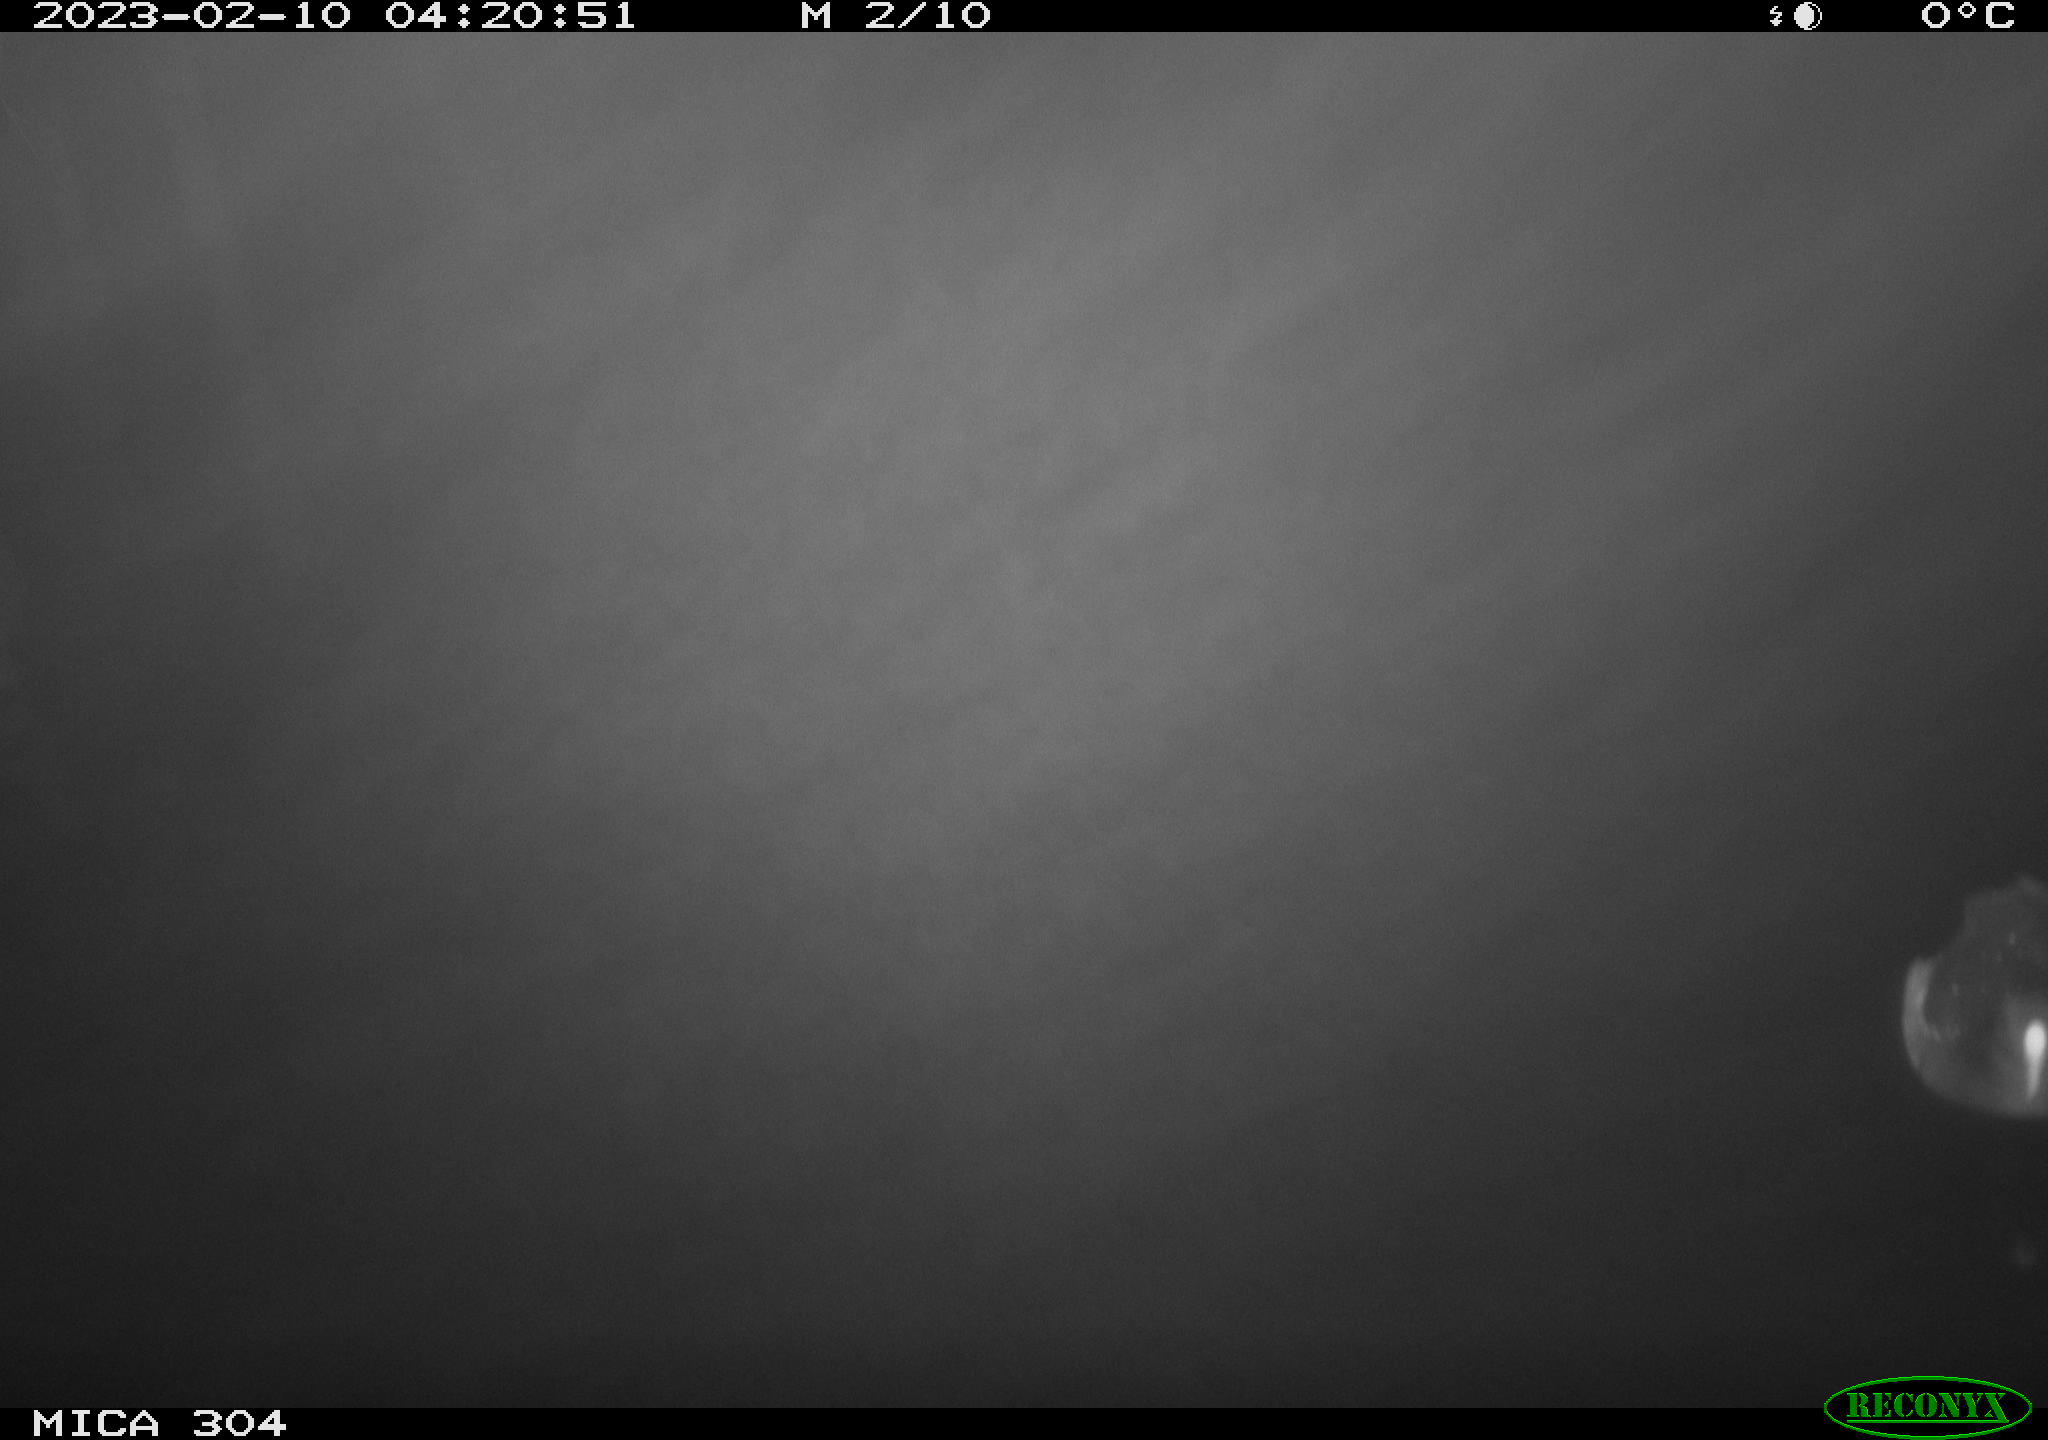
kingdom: Animalia
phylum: Chordata
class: Aves
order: Anseriformes
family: Anatidae
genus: Anas
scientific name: Anas
